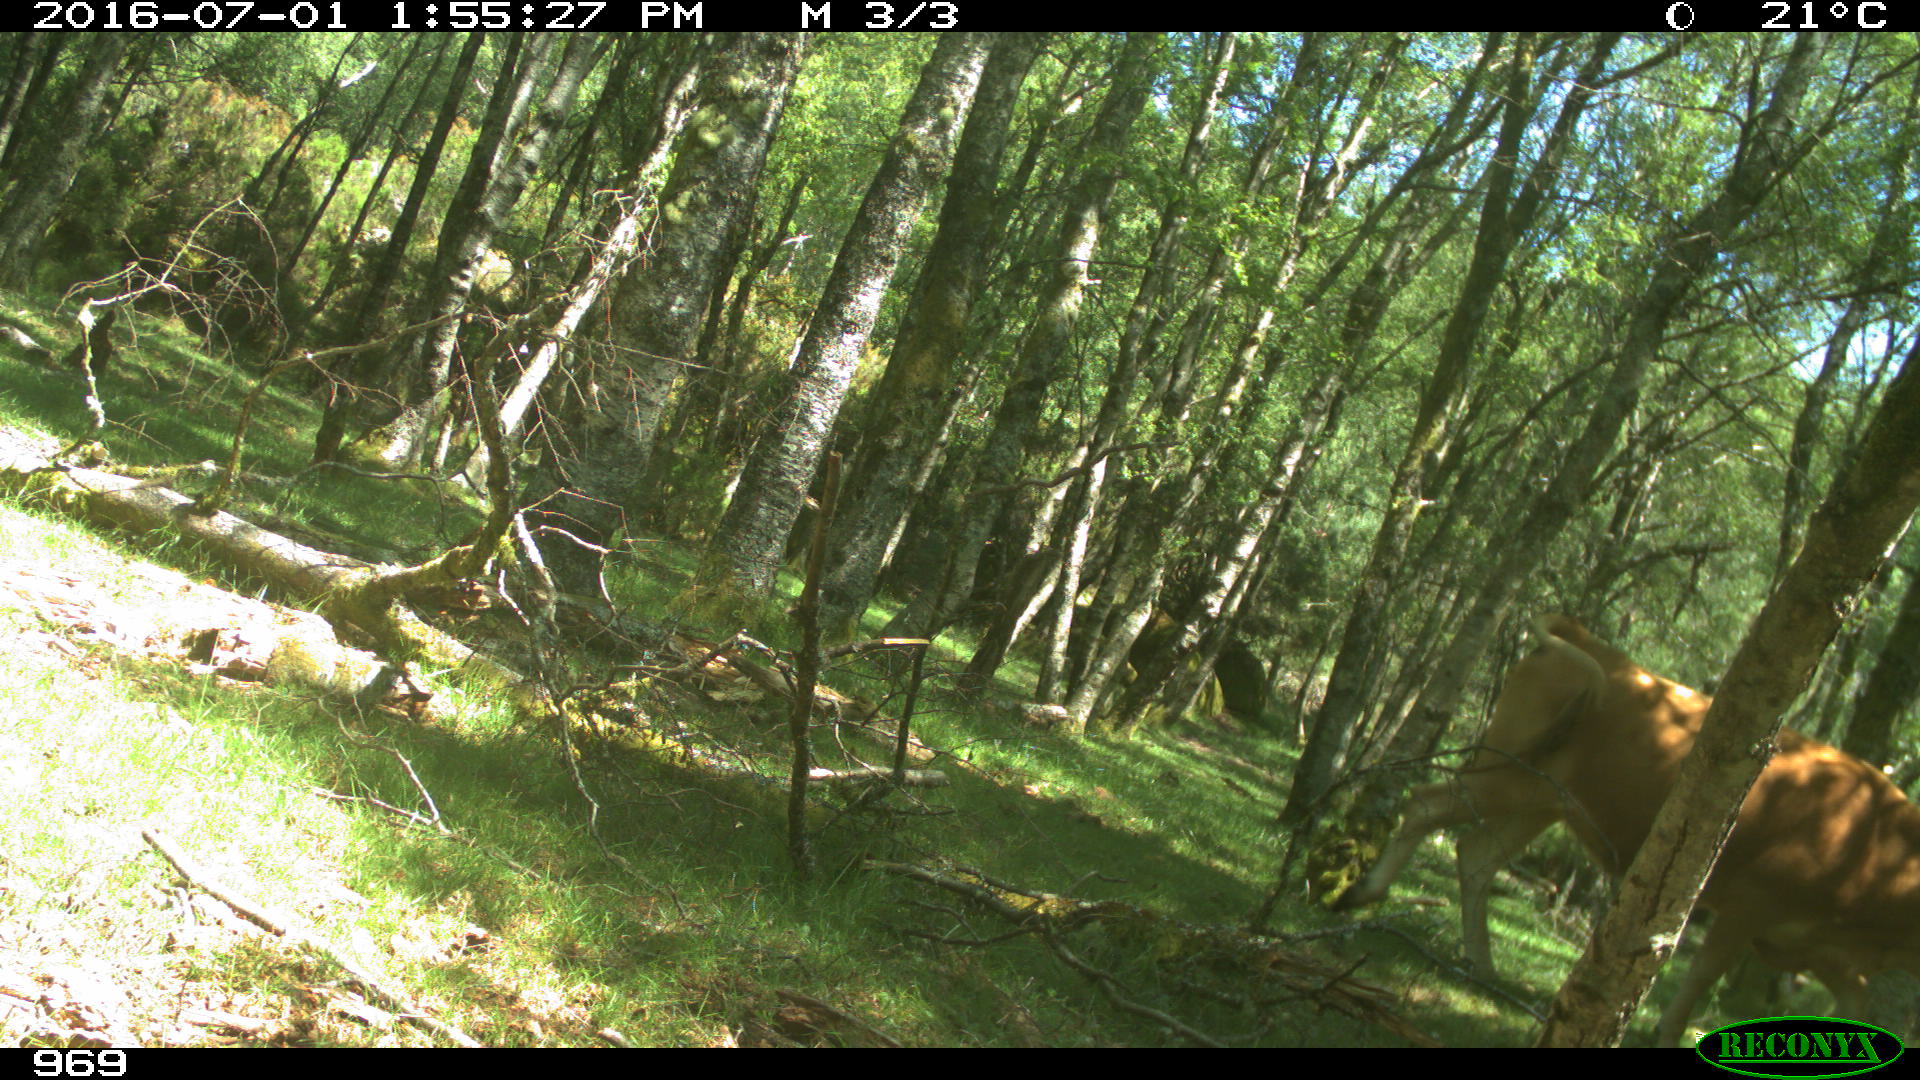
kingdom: Animalia
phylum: Chordata
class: Mammalia
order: Artiodactyla
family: Bovidae
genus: Bos
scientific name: Bos taurus
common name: Domesticated cattle
